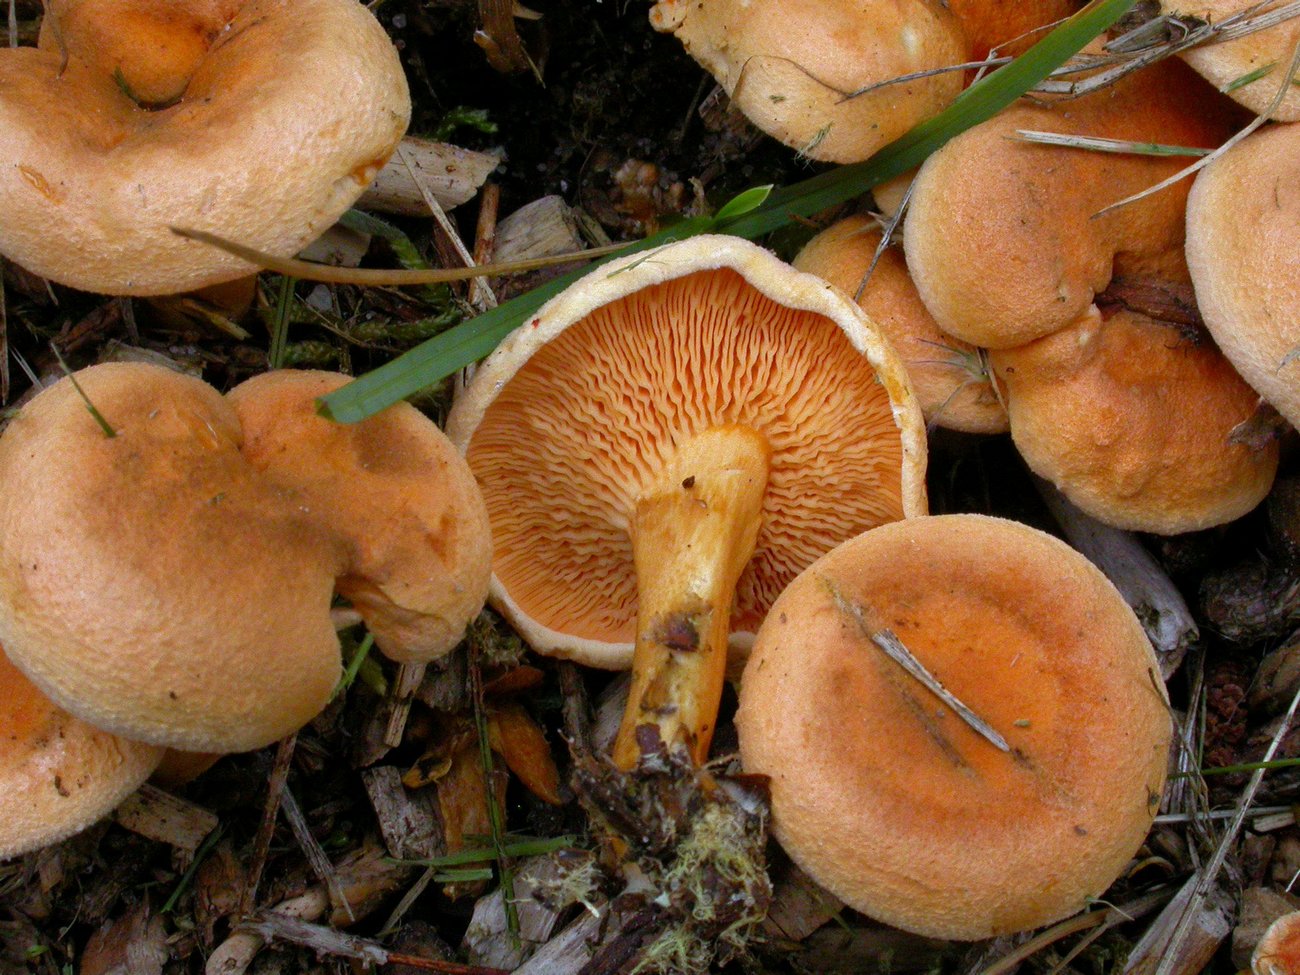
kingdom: Fungi
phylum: Basidiomycota
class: Agaricomycetes
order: Boletales
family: Hygrophoropsidaceae
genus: Hygrophoropsis
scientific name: Hygrophoropsis aurantiaca
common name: almindelig orangekantarel
